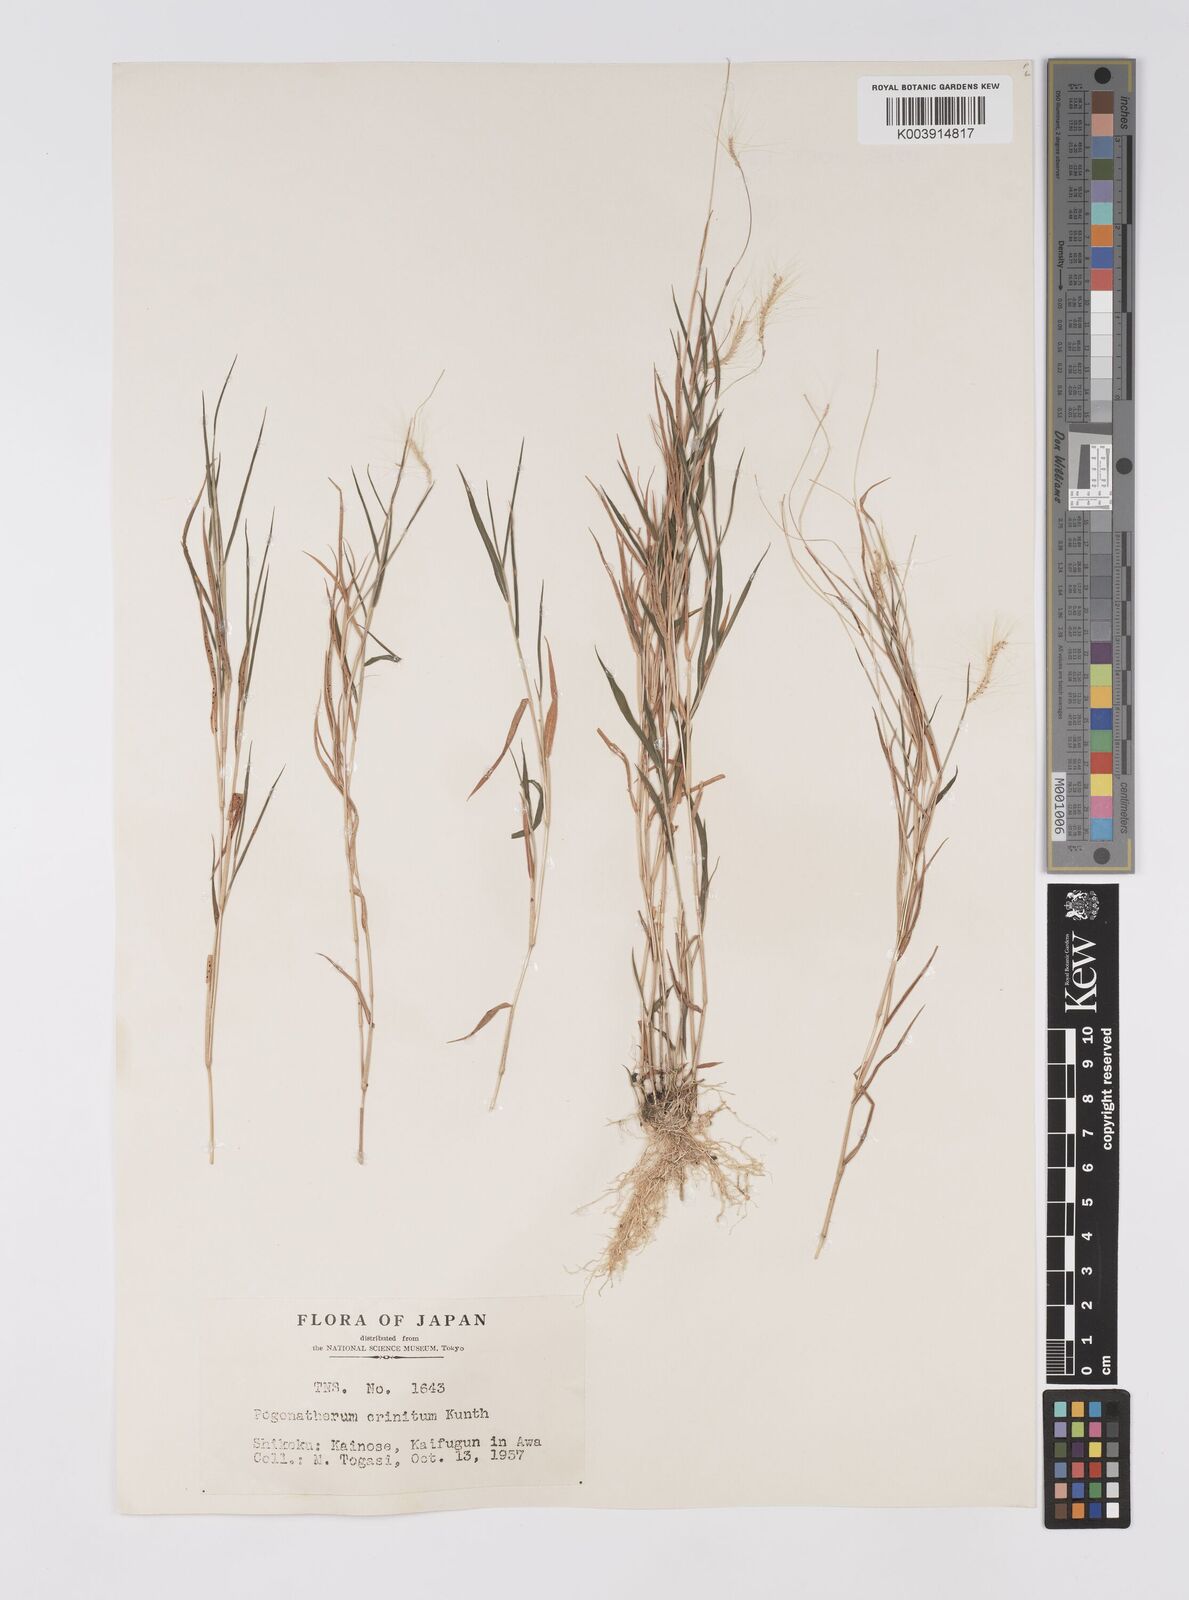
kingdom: Plantae
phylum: Tracheophyta
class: Liliopsida
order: Poales
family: Poaceae
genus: Pogonatherum
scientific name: Pogonatherum crinitum
